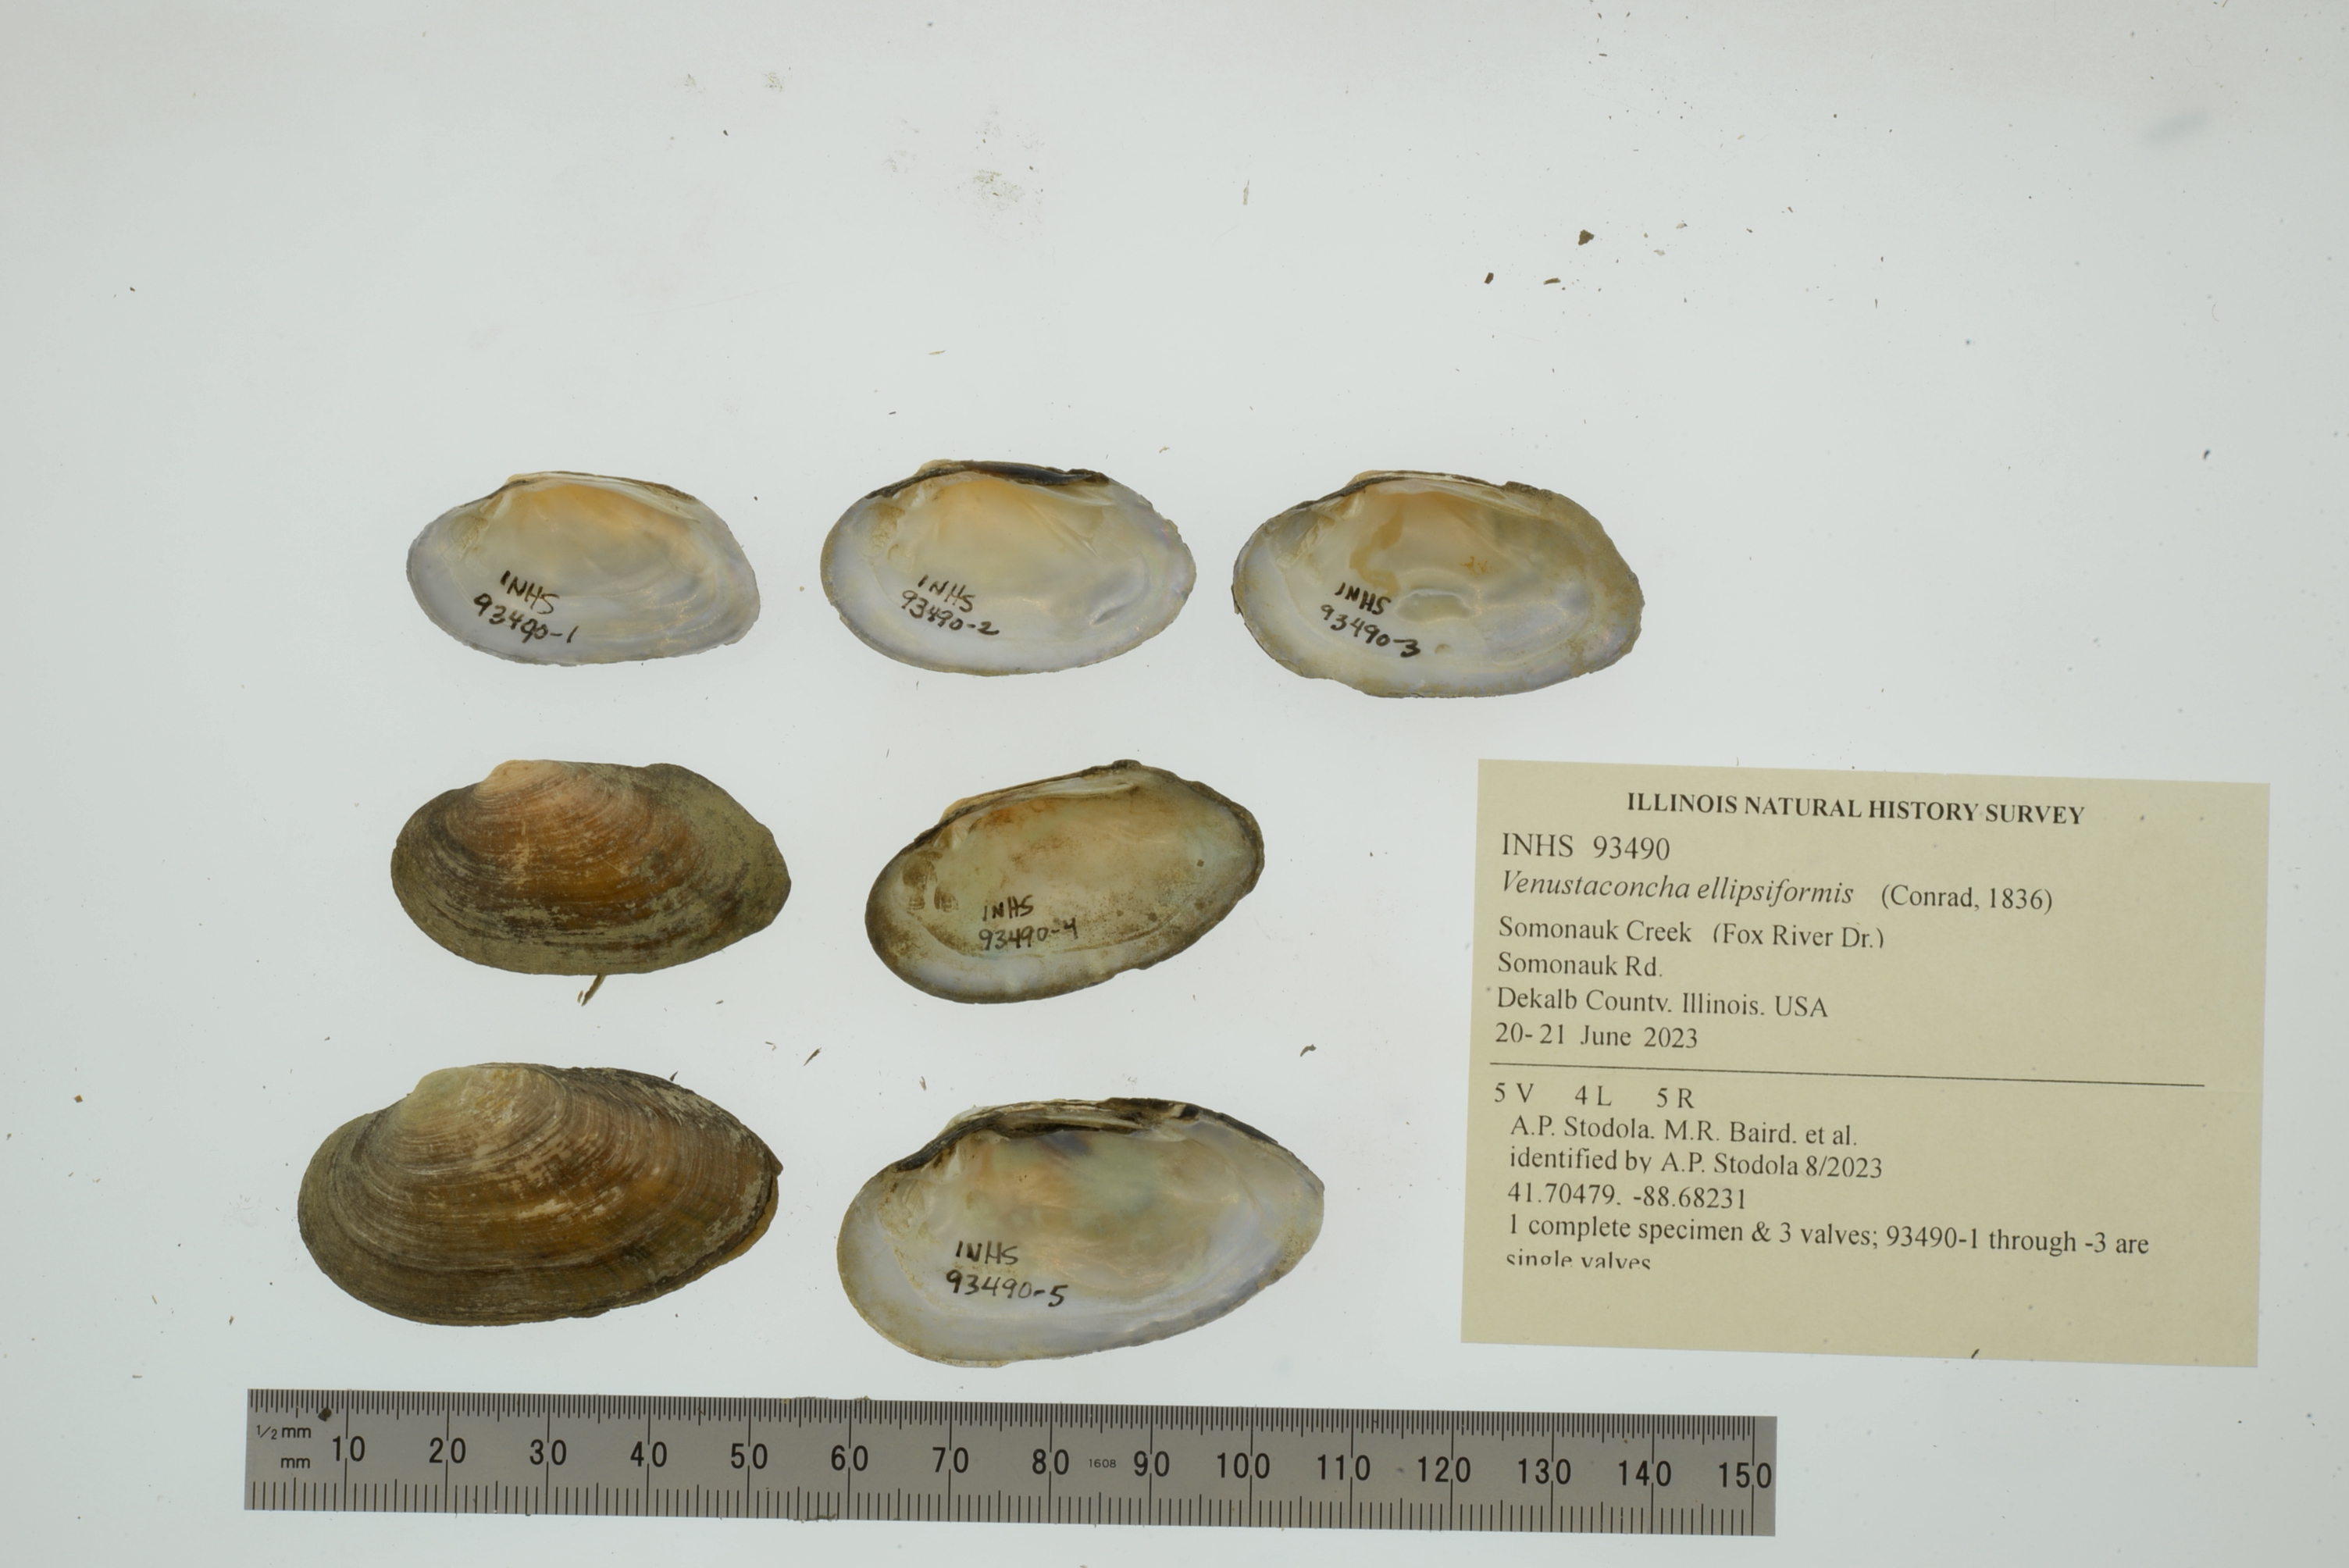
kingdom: Animalia
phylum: Mollusca
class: Bivalvia
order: Unionida
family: Unionidae
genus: Venustaconcha
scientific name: Venustaconcha ellipsiformis
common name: Ellipse
